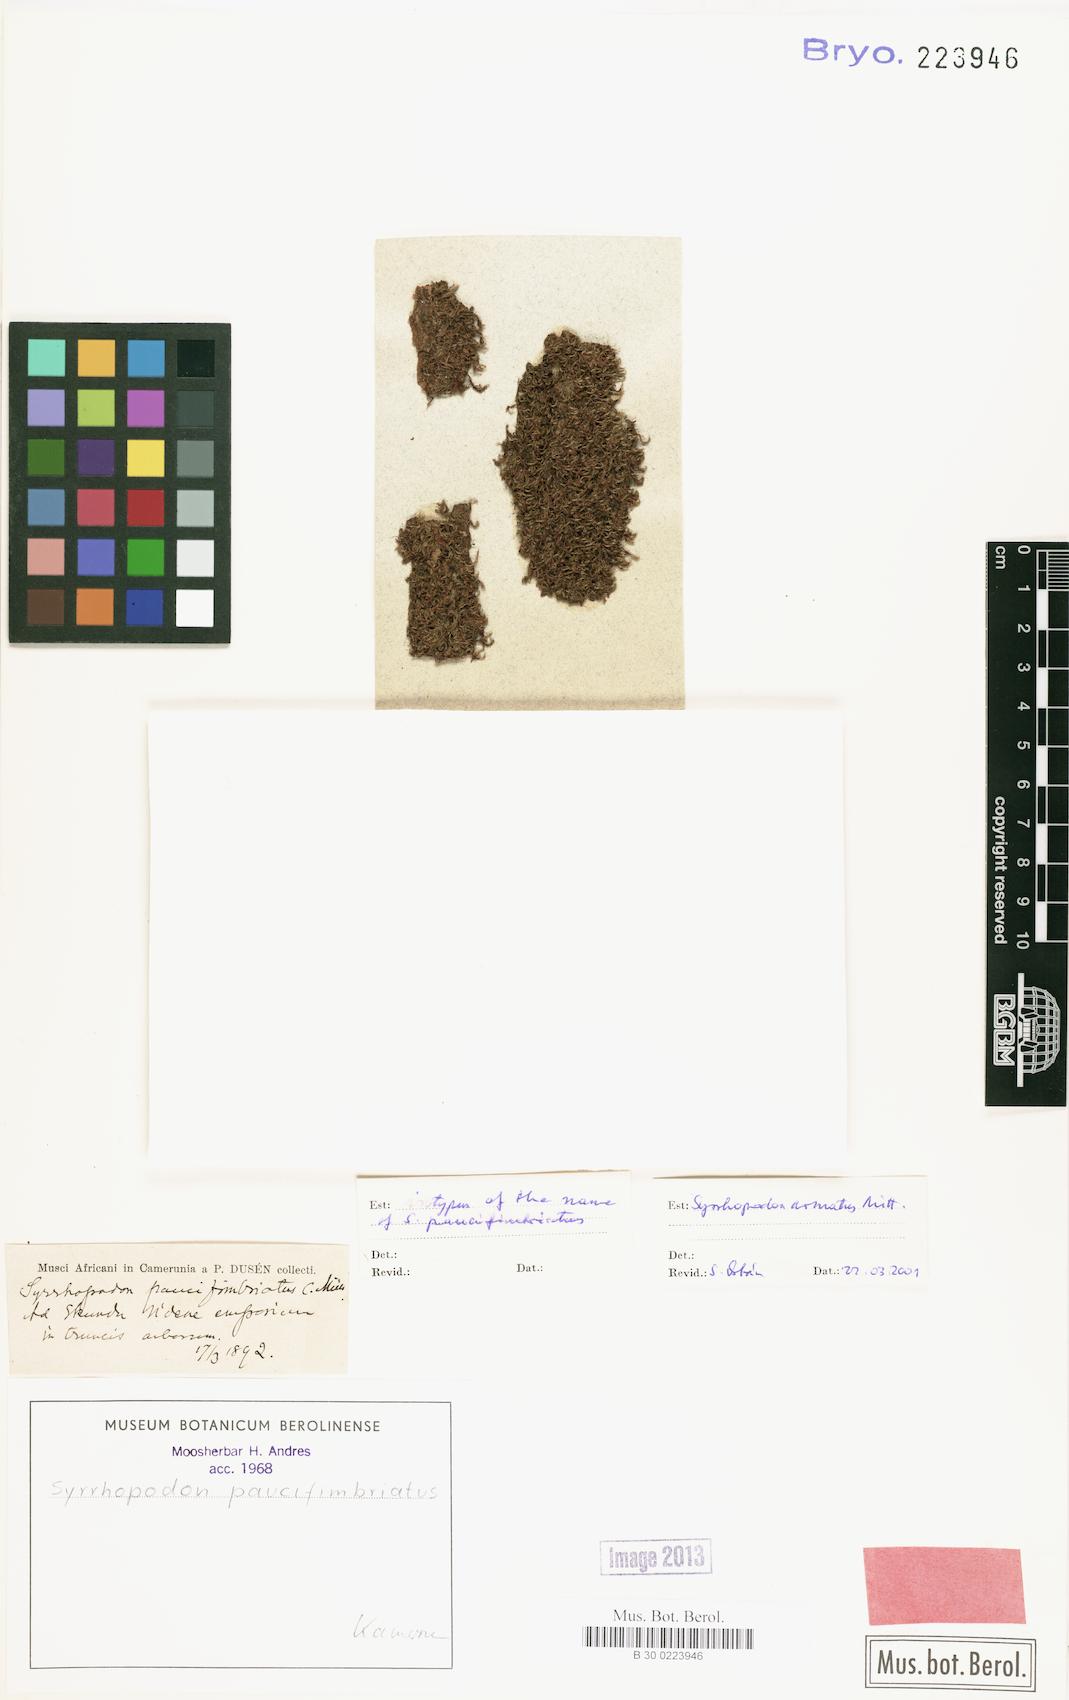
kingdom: Plantae
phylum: Bryophyta
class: Bryopsida
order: Dicranales
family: Calymperaceae
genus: Syrrhopodon
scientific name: Syrrhopodon armatus
